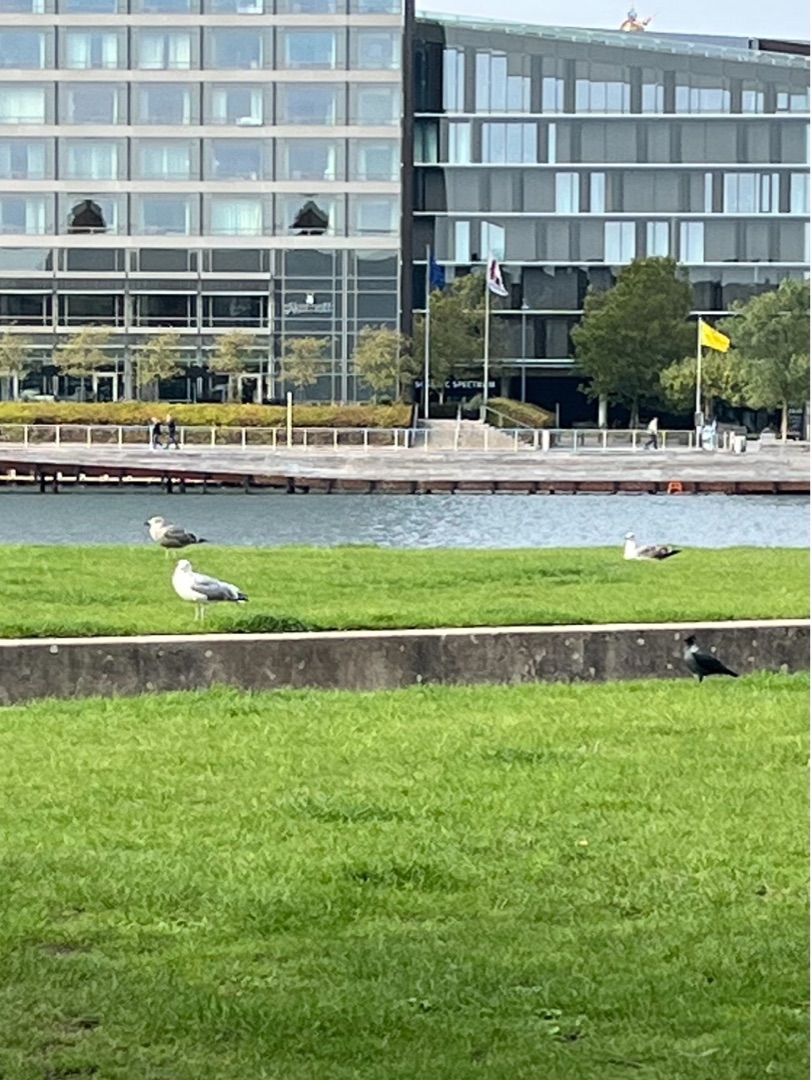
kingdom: Animalia
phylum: Chordata
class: Aves
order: Charadriiformes
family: Laridae
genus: Larus
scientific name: Larus argentatus
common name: Sølvmåge
